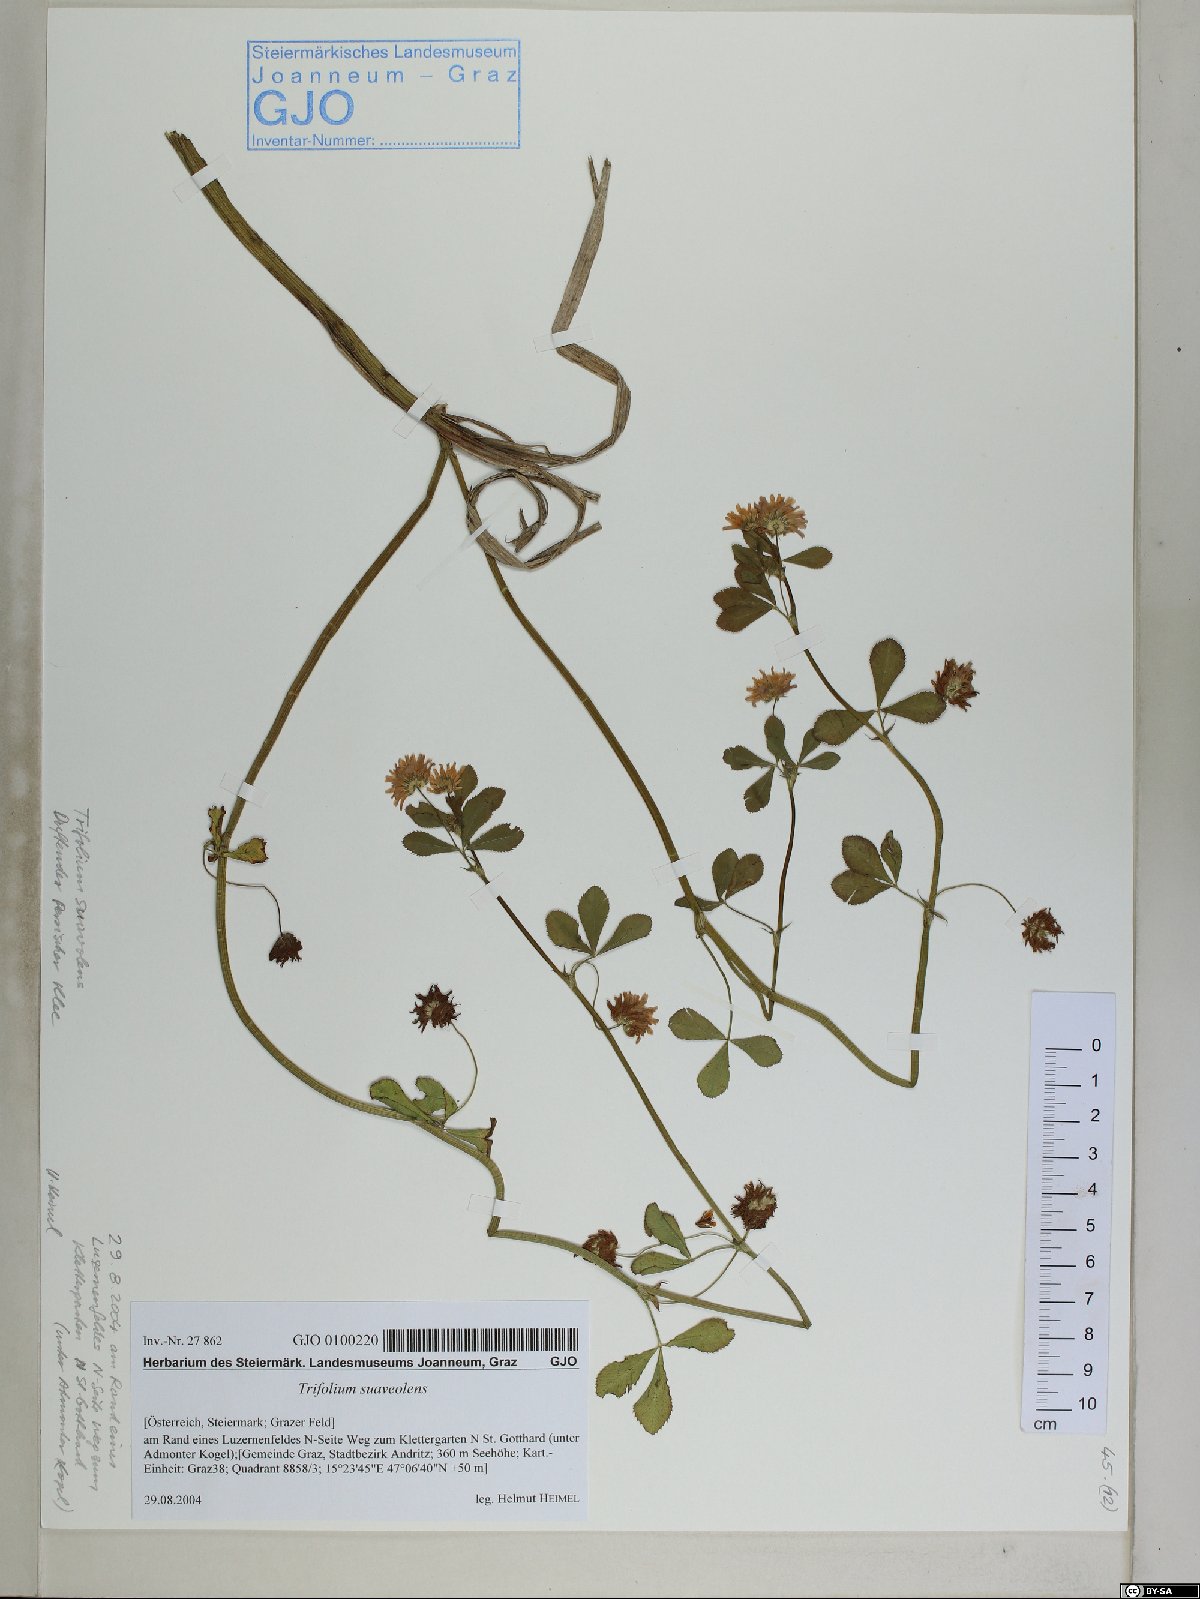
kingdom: Plantae
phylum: Tracheophyta
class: Magnoliopsida
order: Fabales
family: Fabaceae
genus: Trifolium
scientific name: Trifolium resupinatum
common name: Reversed clover
